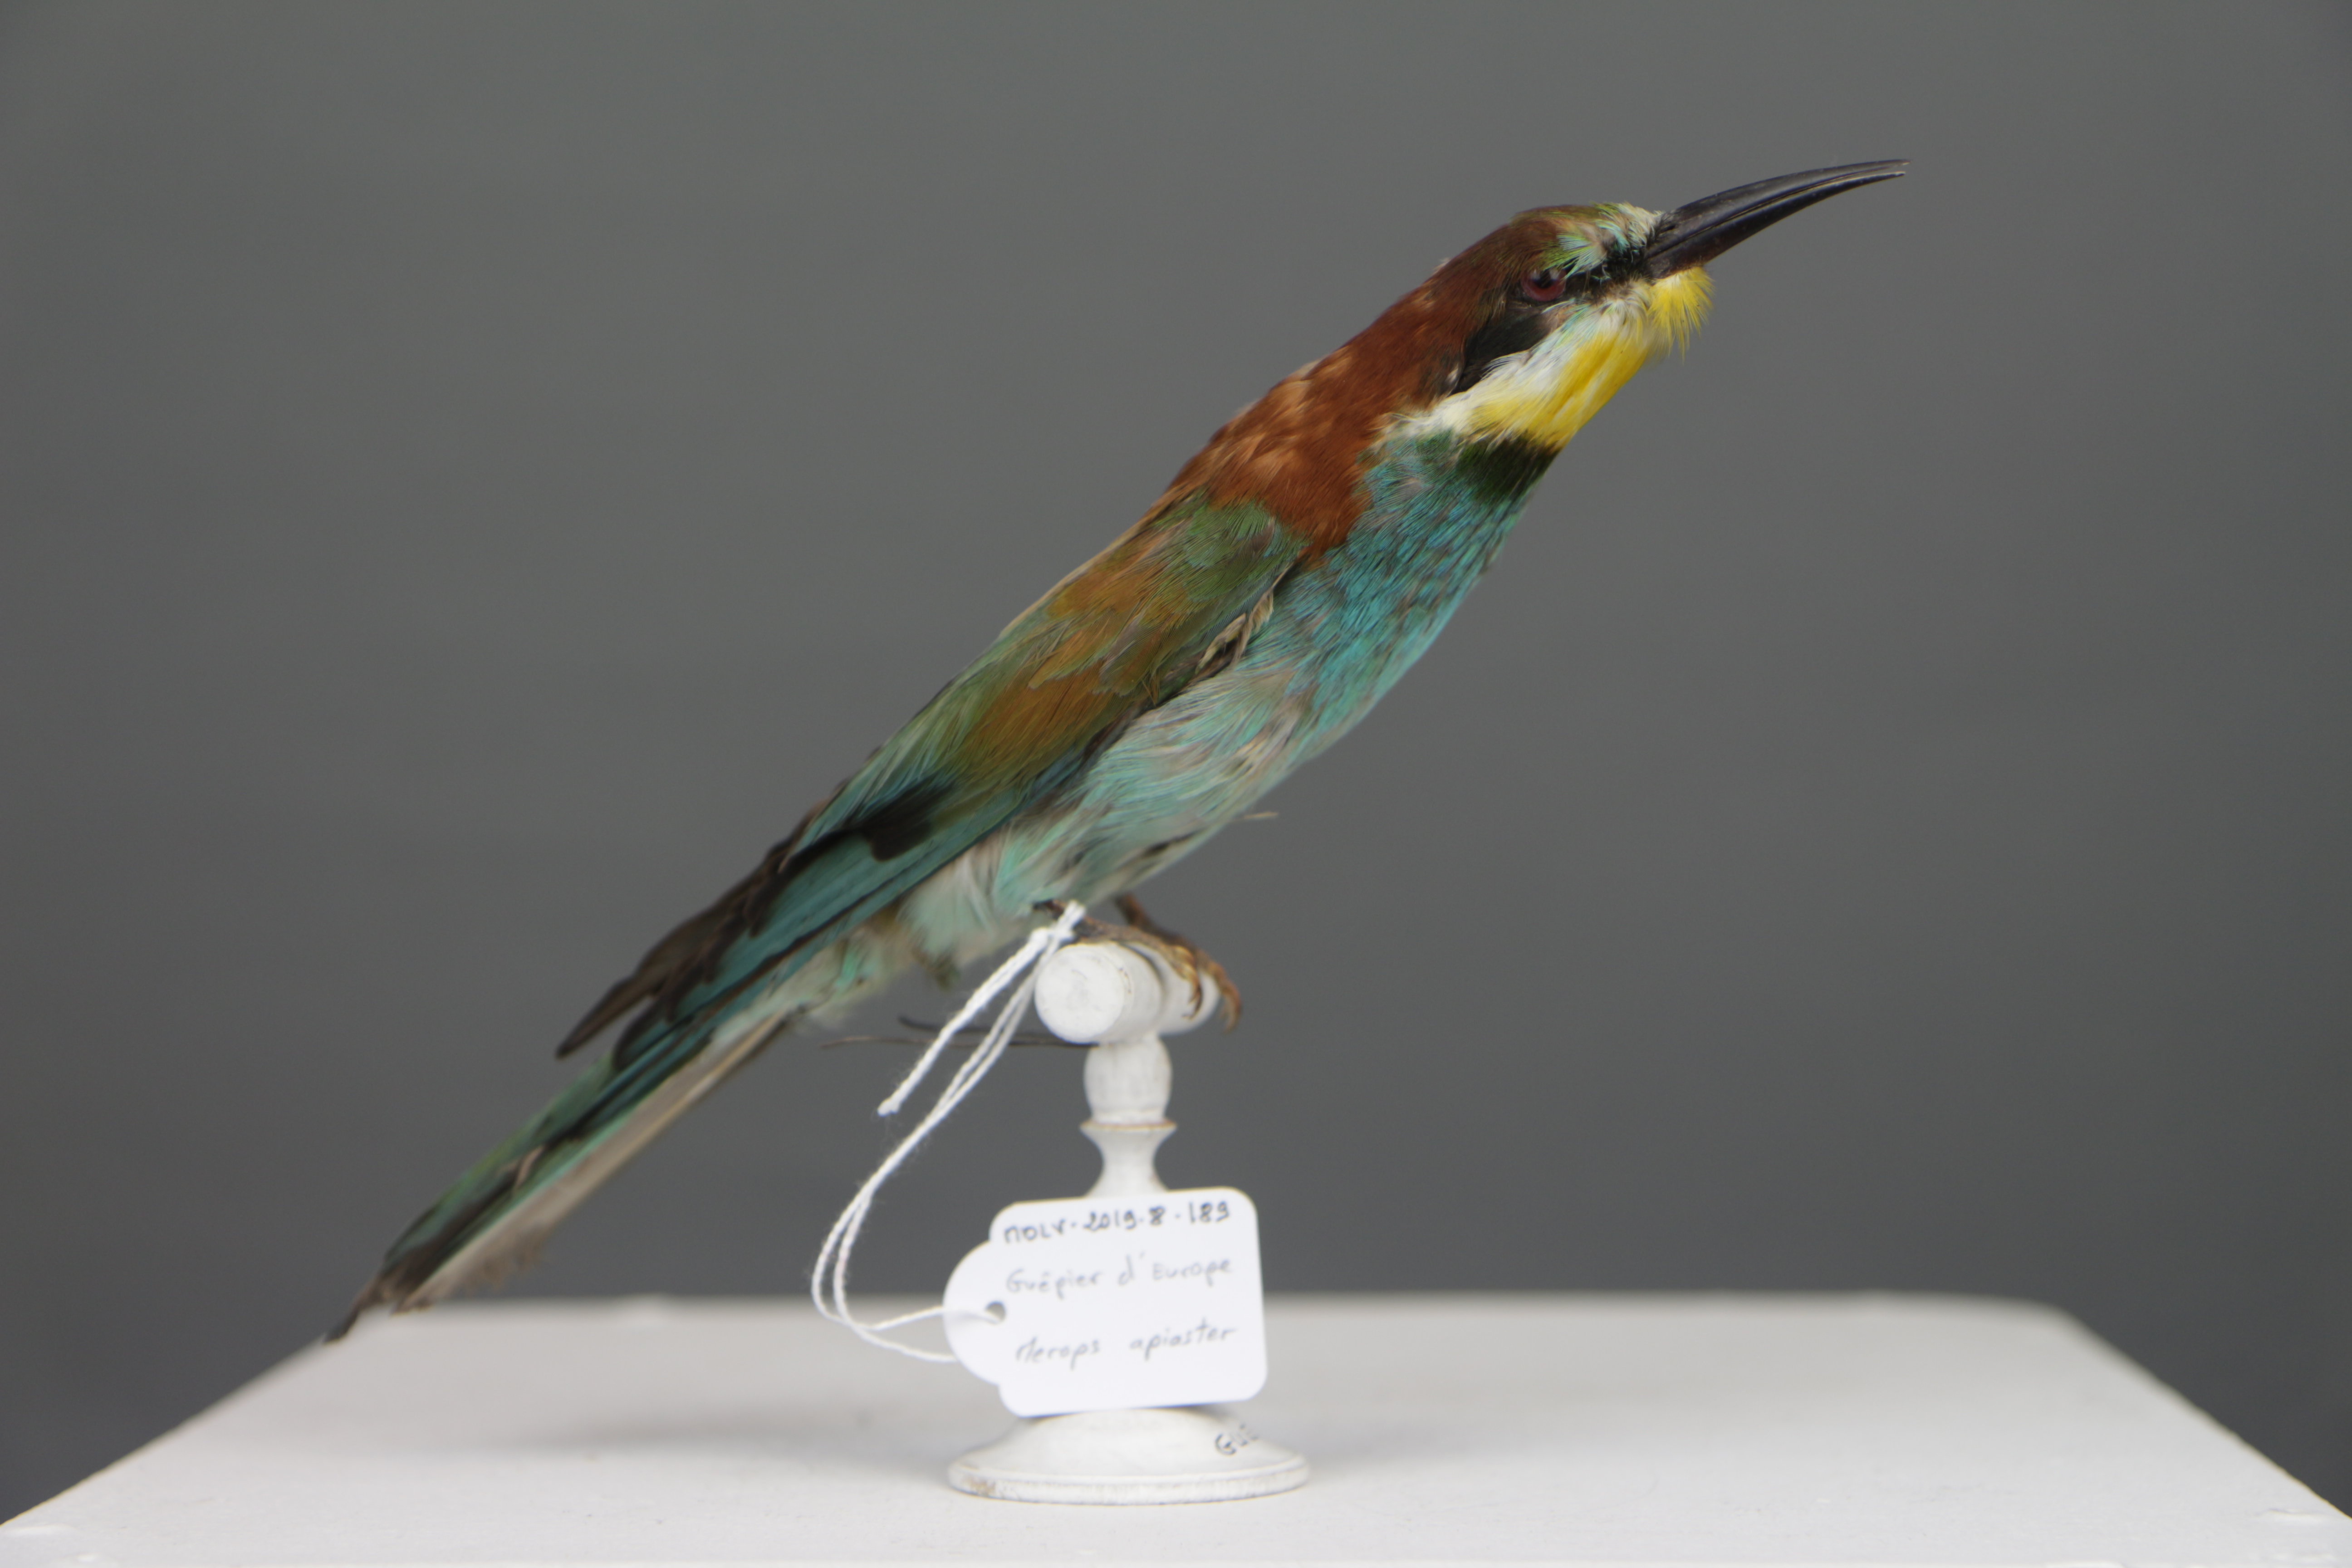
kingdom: Animalia
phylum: Chordata
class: Aves
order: Coraciiformes
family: Meropidae
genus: Merops
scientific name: Merops apiaster
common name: European bee-eater
